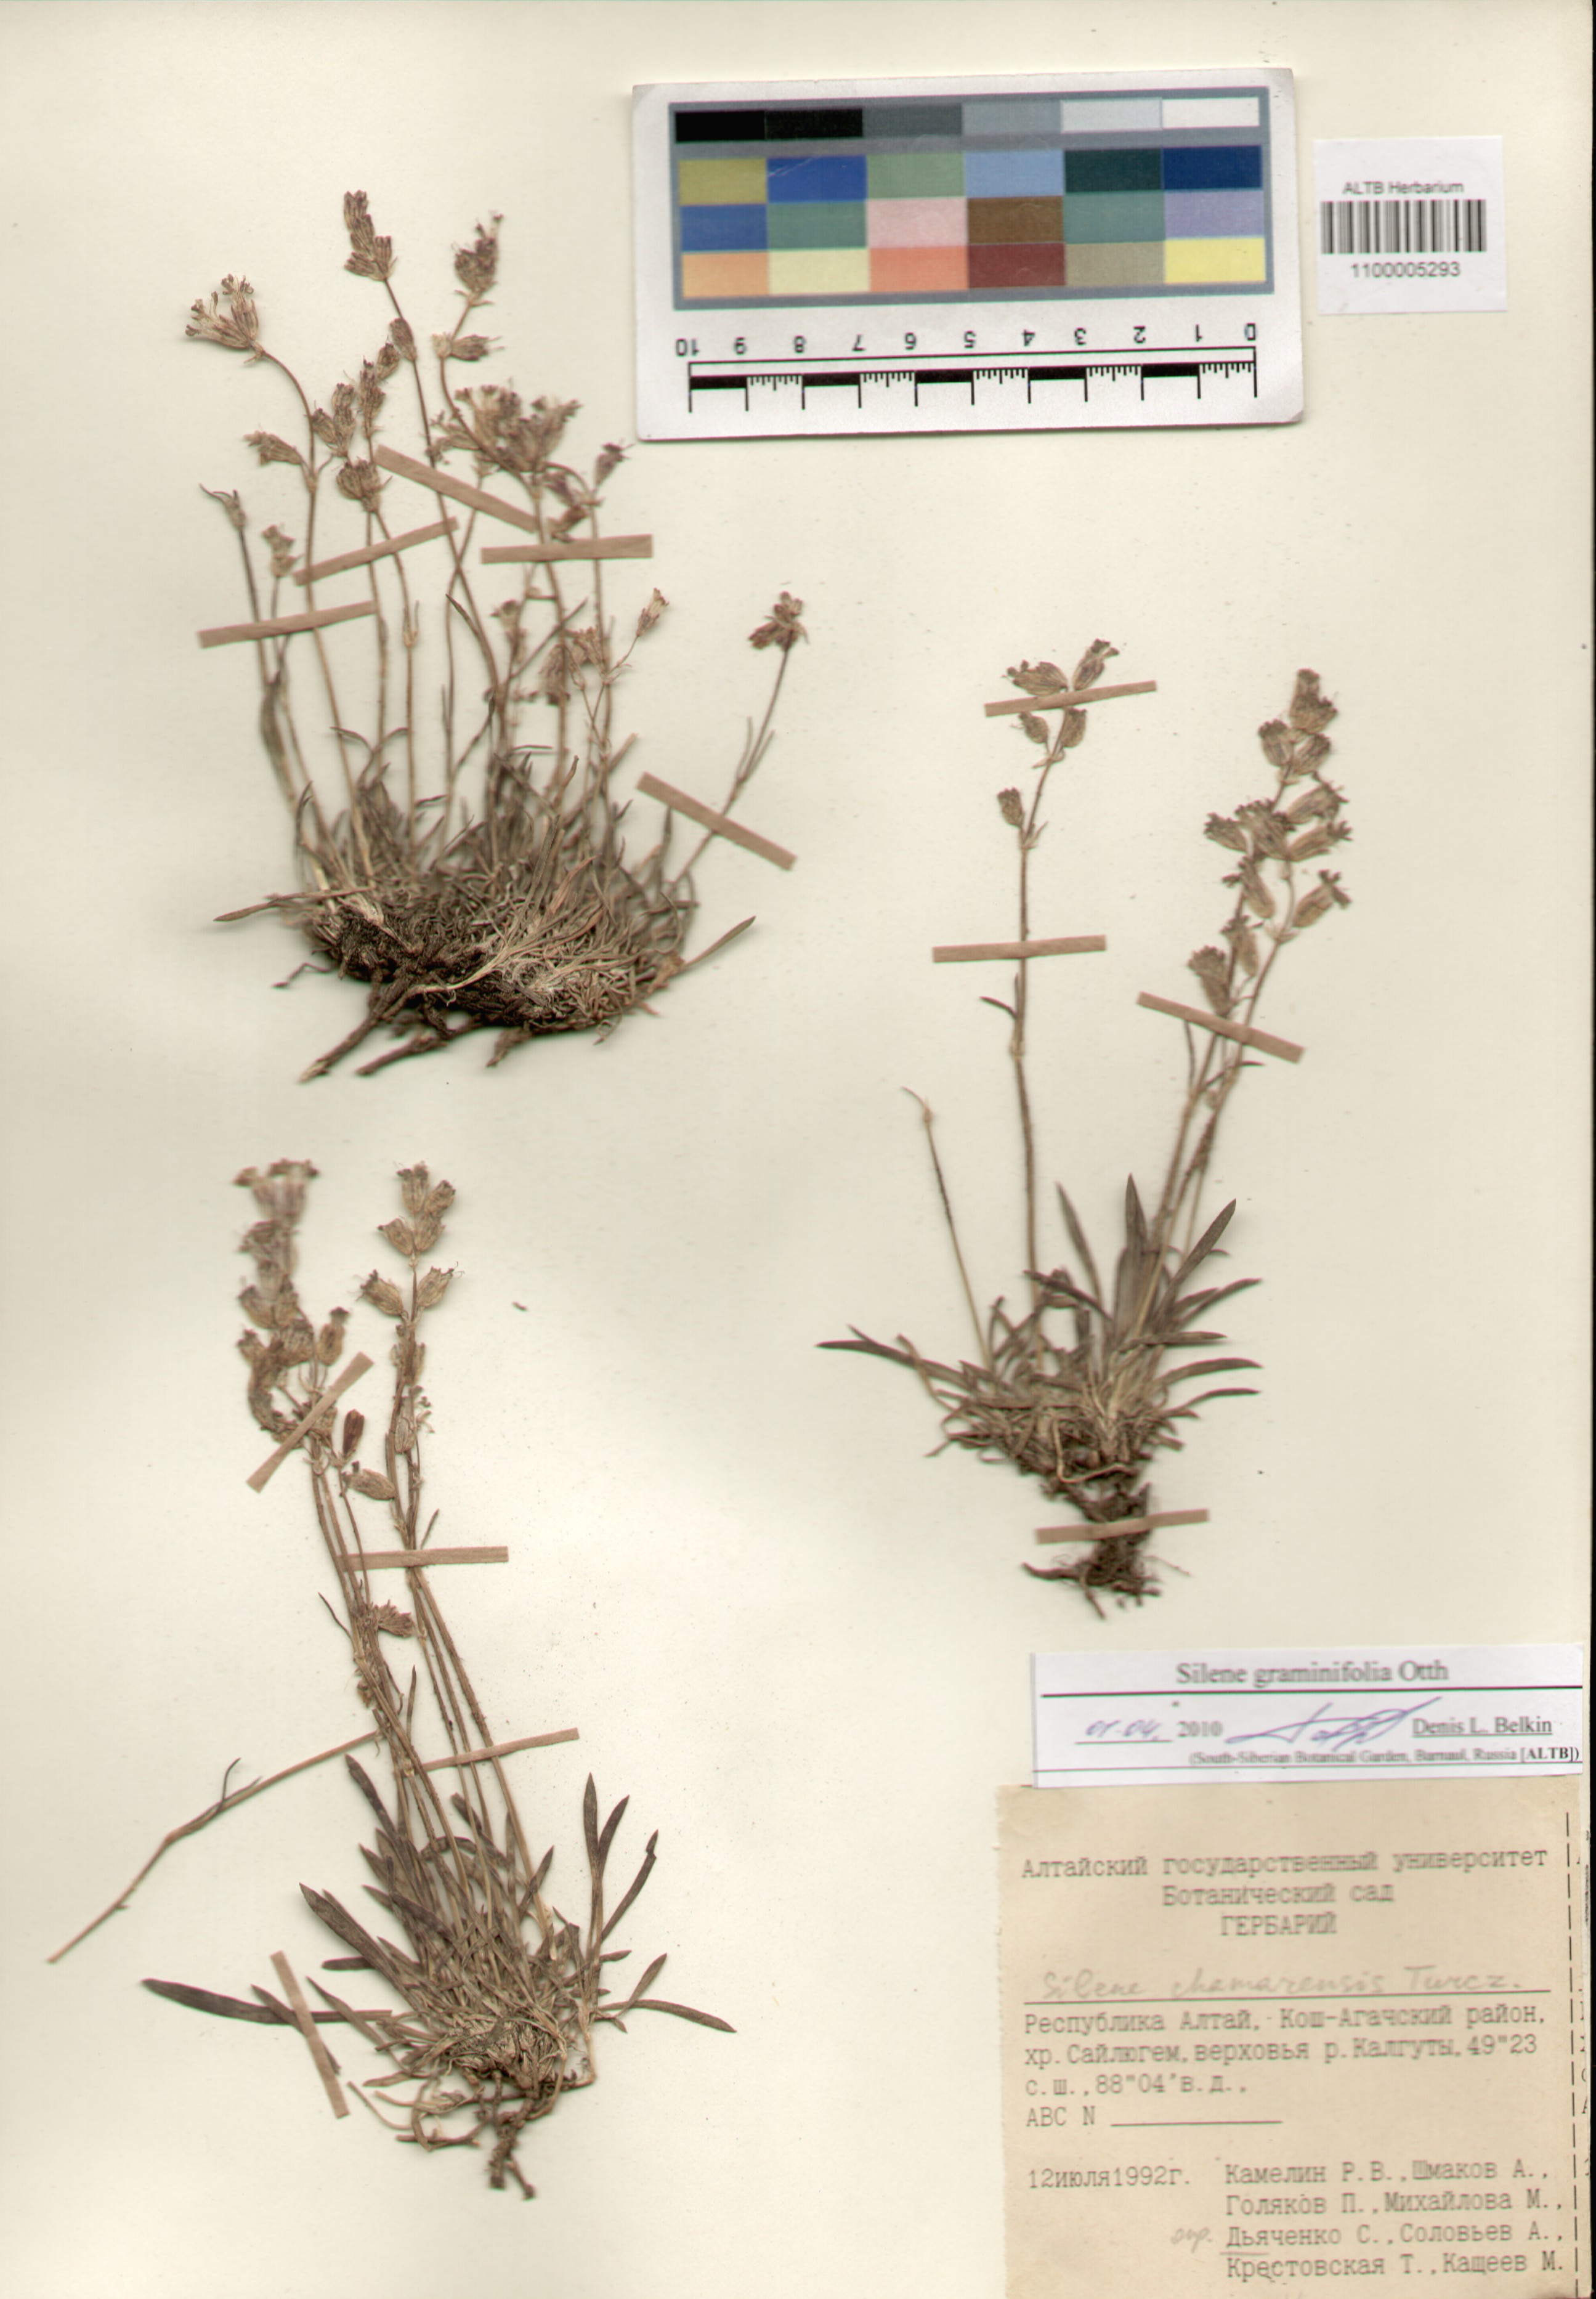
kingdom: Plantae
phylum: Tracheophyta
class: Magnoliopsida
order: Caryophyllales
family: Caryophyllaceae
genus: Silene
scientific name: Silene graminifolia
